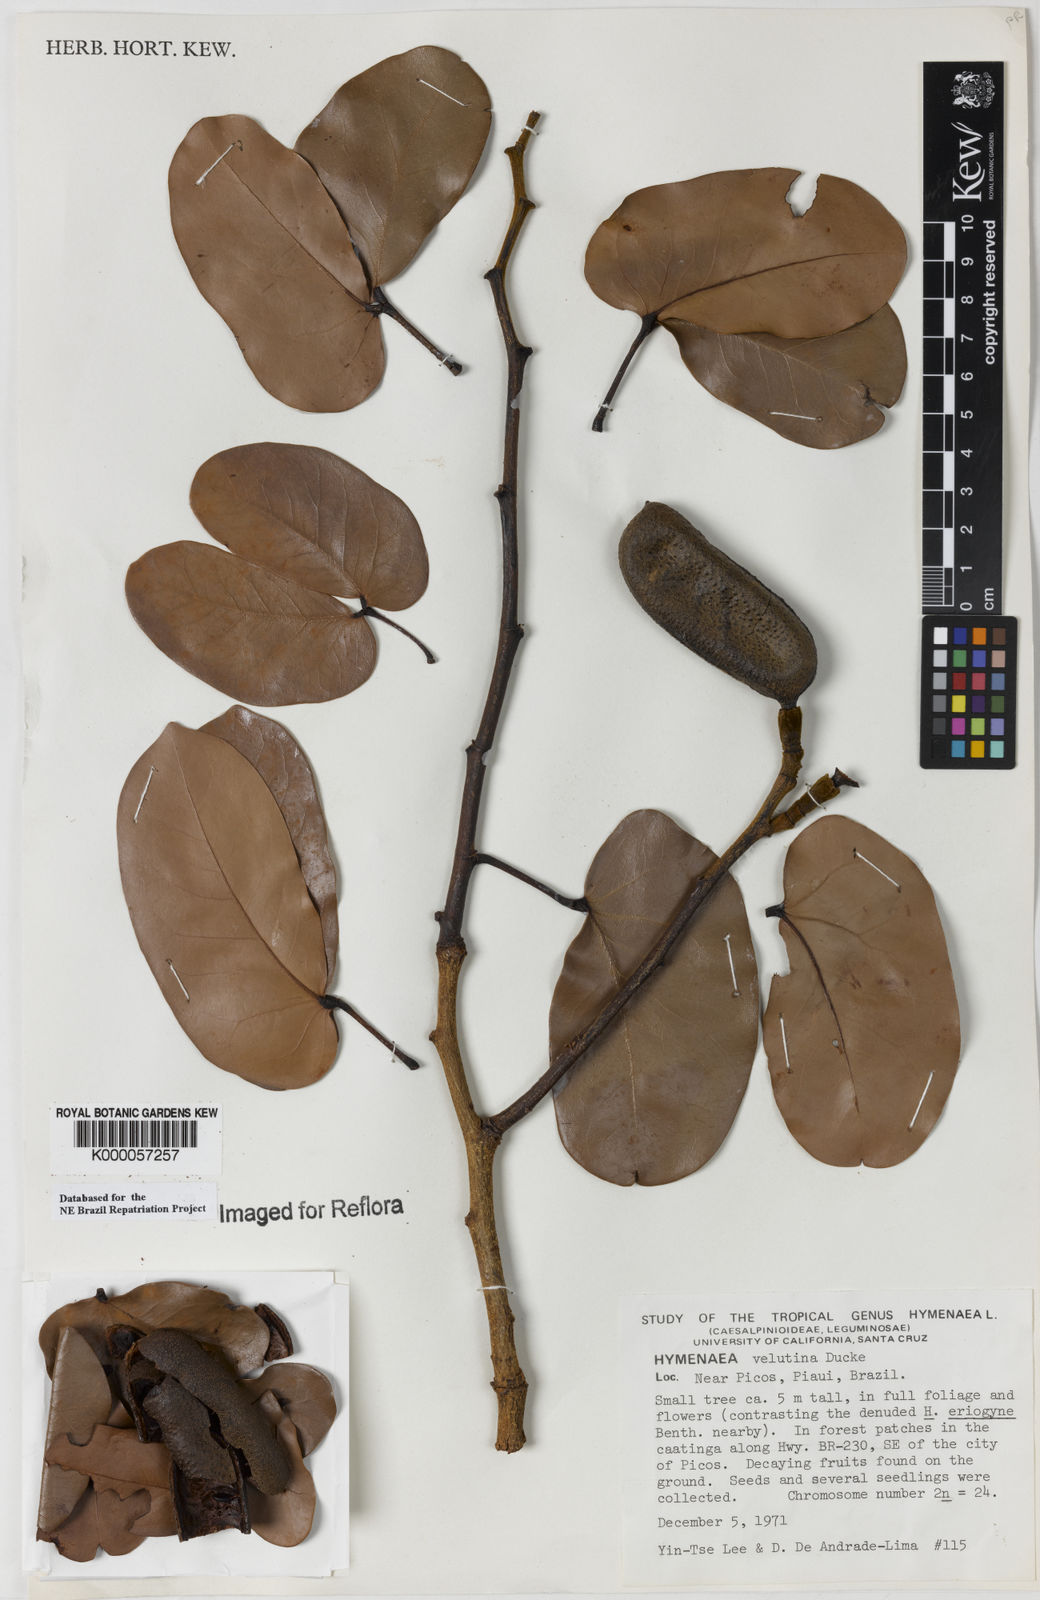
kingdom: Plantae
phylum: Tracheophyta
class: Magnoliopsida
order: Fabales
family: Fabaceae
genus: Hymenaea
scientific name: Hymenaea velutina
